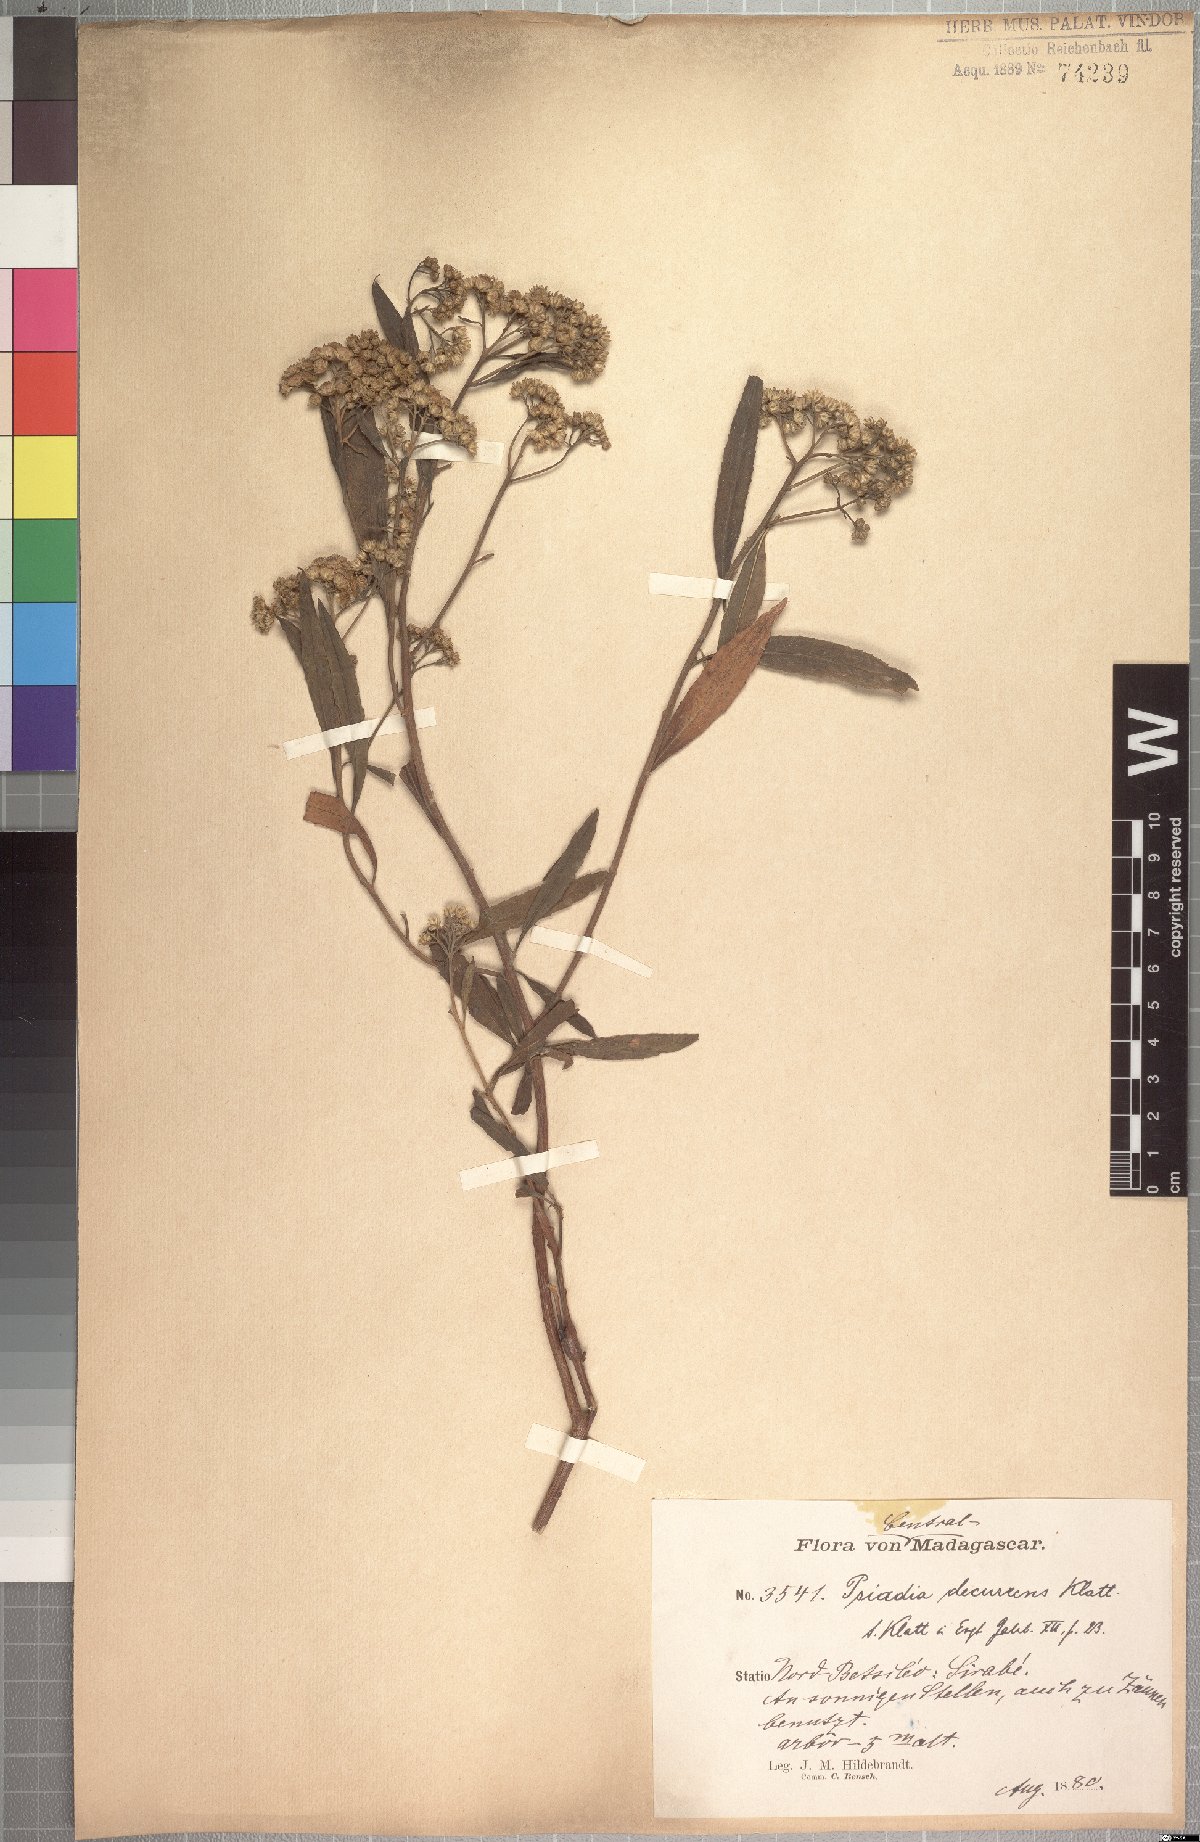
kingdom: Plantae
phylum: Tracheophyta
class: Magnoliopsida
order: Asterales
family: Asteraceae
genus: Psiadia
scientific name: Psiadia altissima
